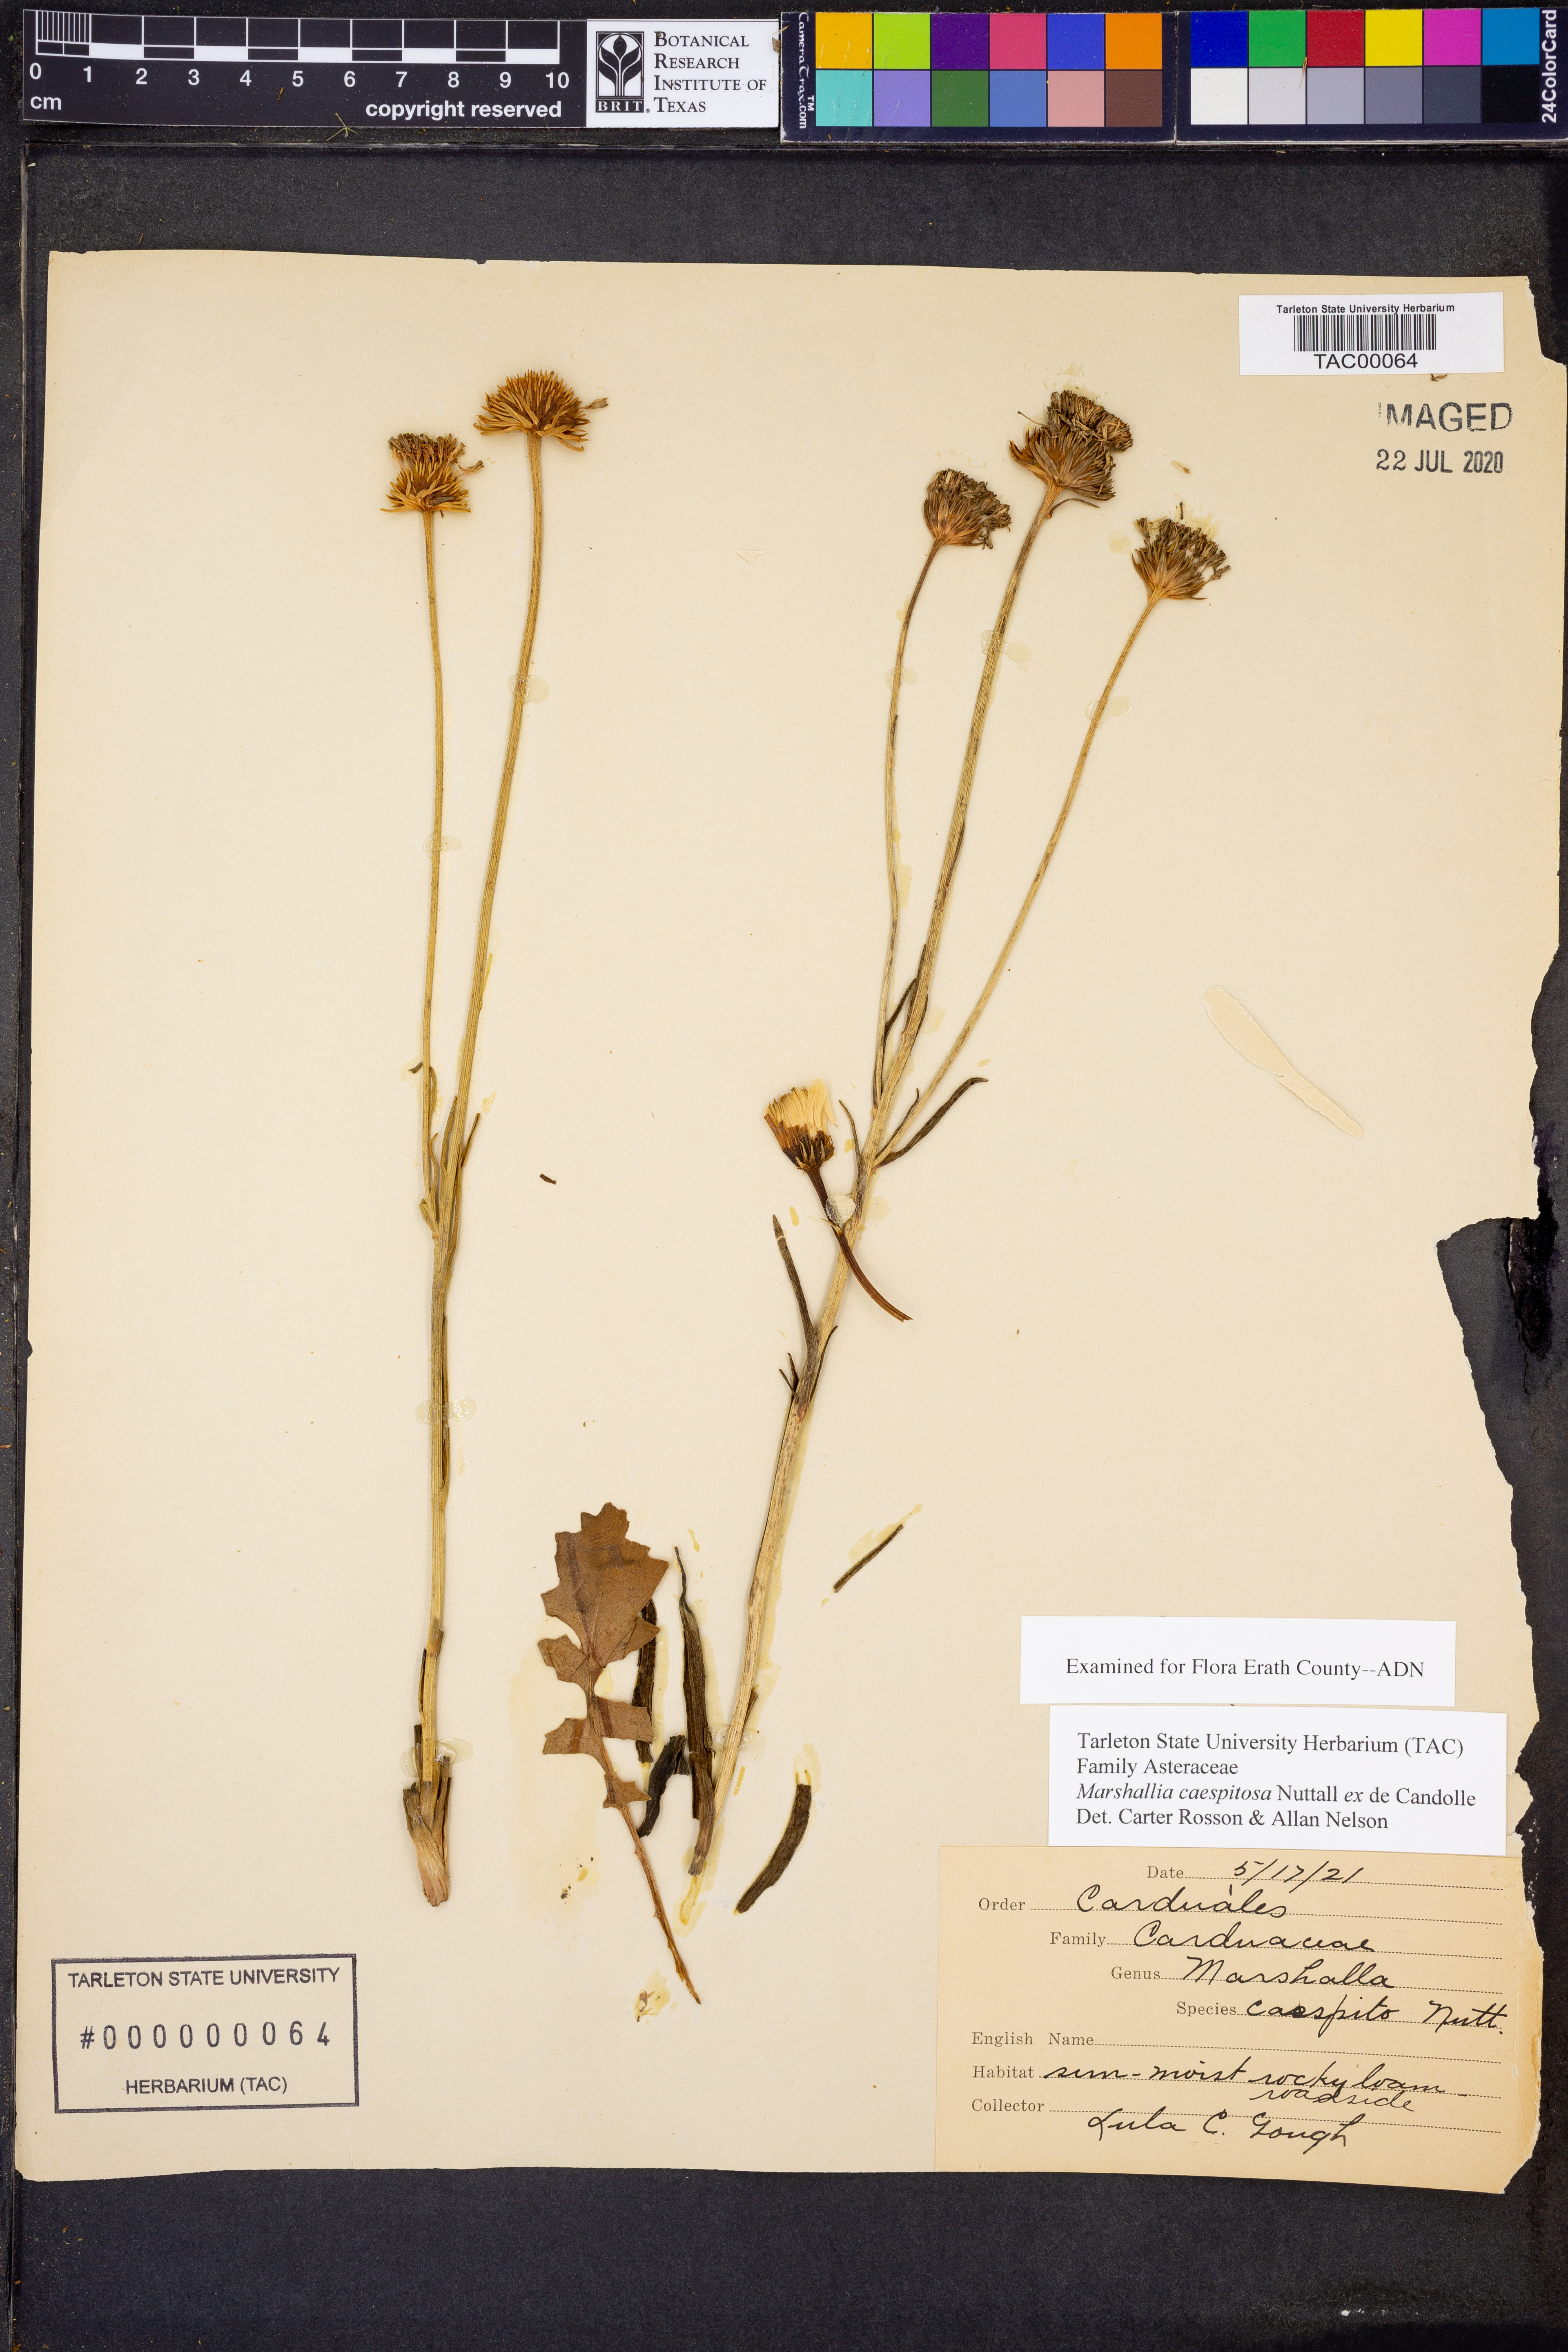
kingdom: Plantae
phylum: Tracheophyta
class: Magnoliopsida
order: Asterales
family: Asteraceae
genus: Marshallia
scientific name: Marshallia caespitosa
